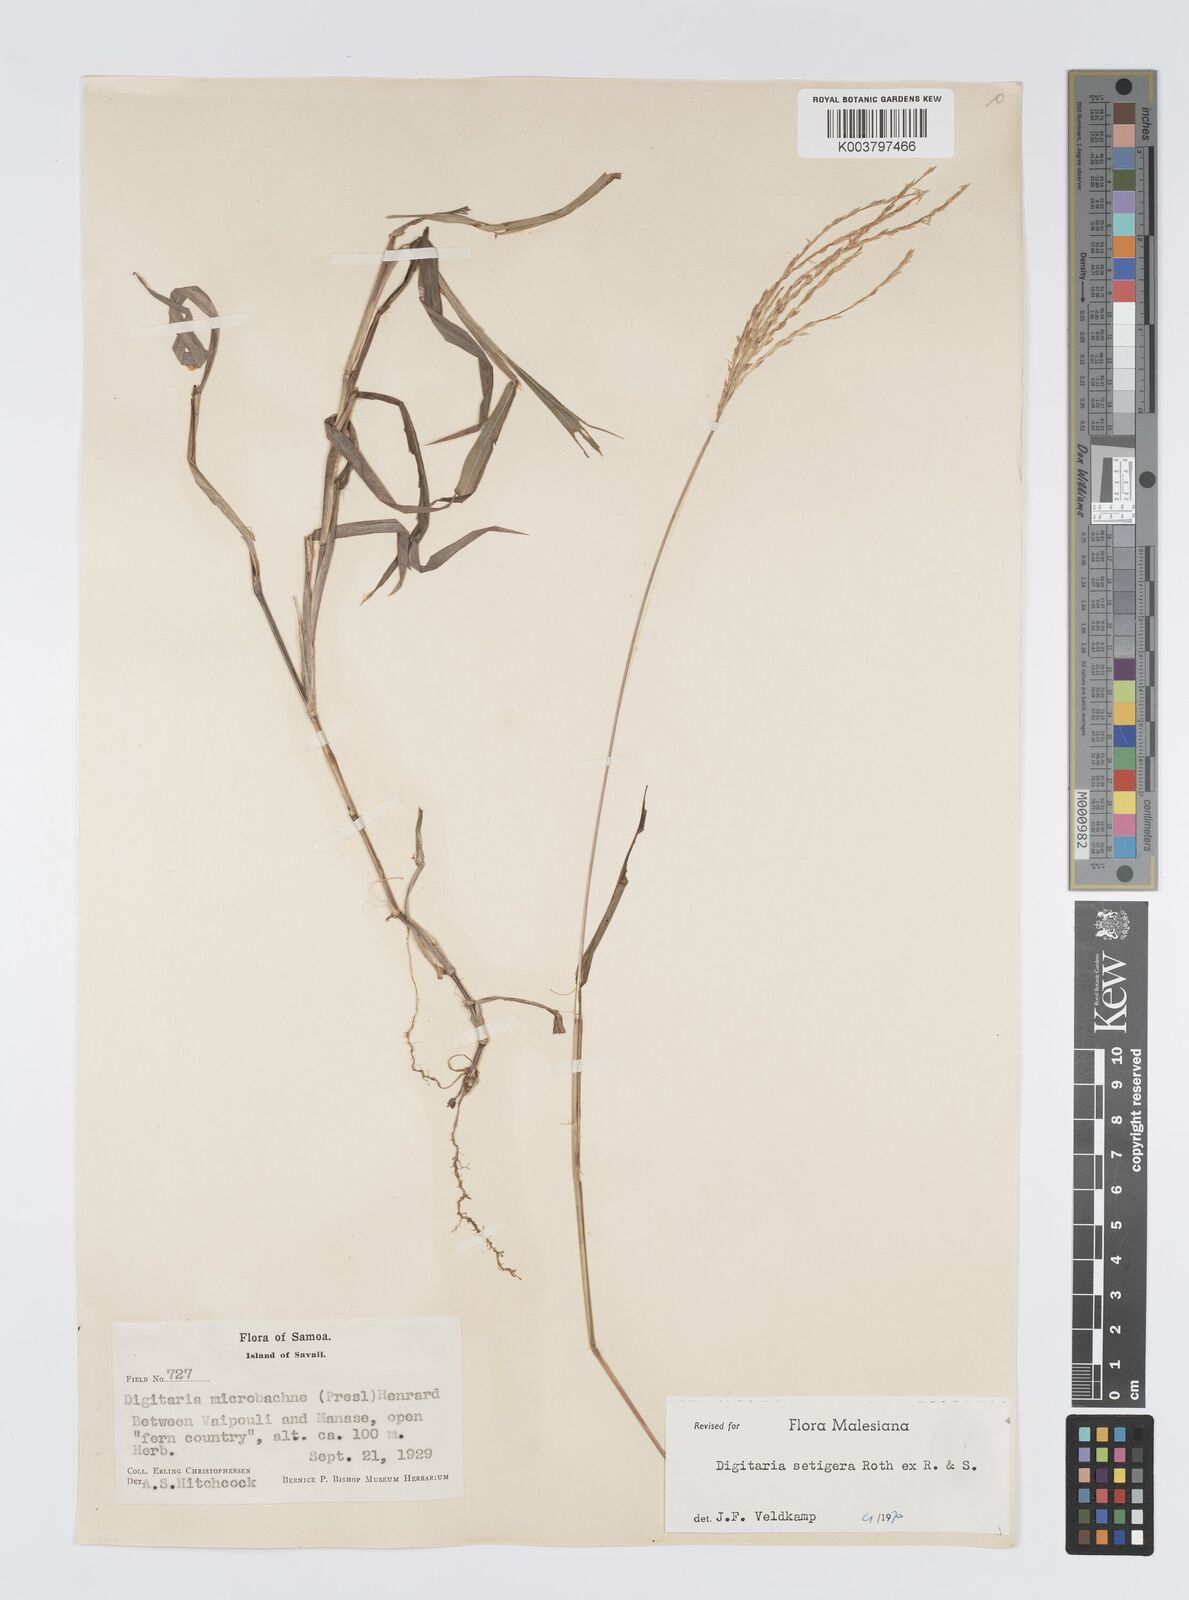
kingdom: Plantae
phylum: Tracheophyta
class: Liliopsida
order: Poales
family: Poaceae
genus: Digitaria
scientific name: Digitaria setigera
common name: East indian crabgrass
